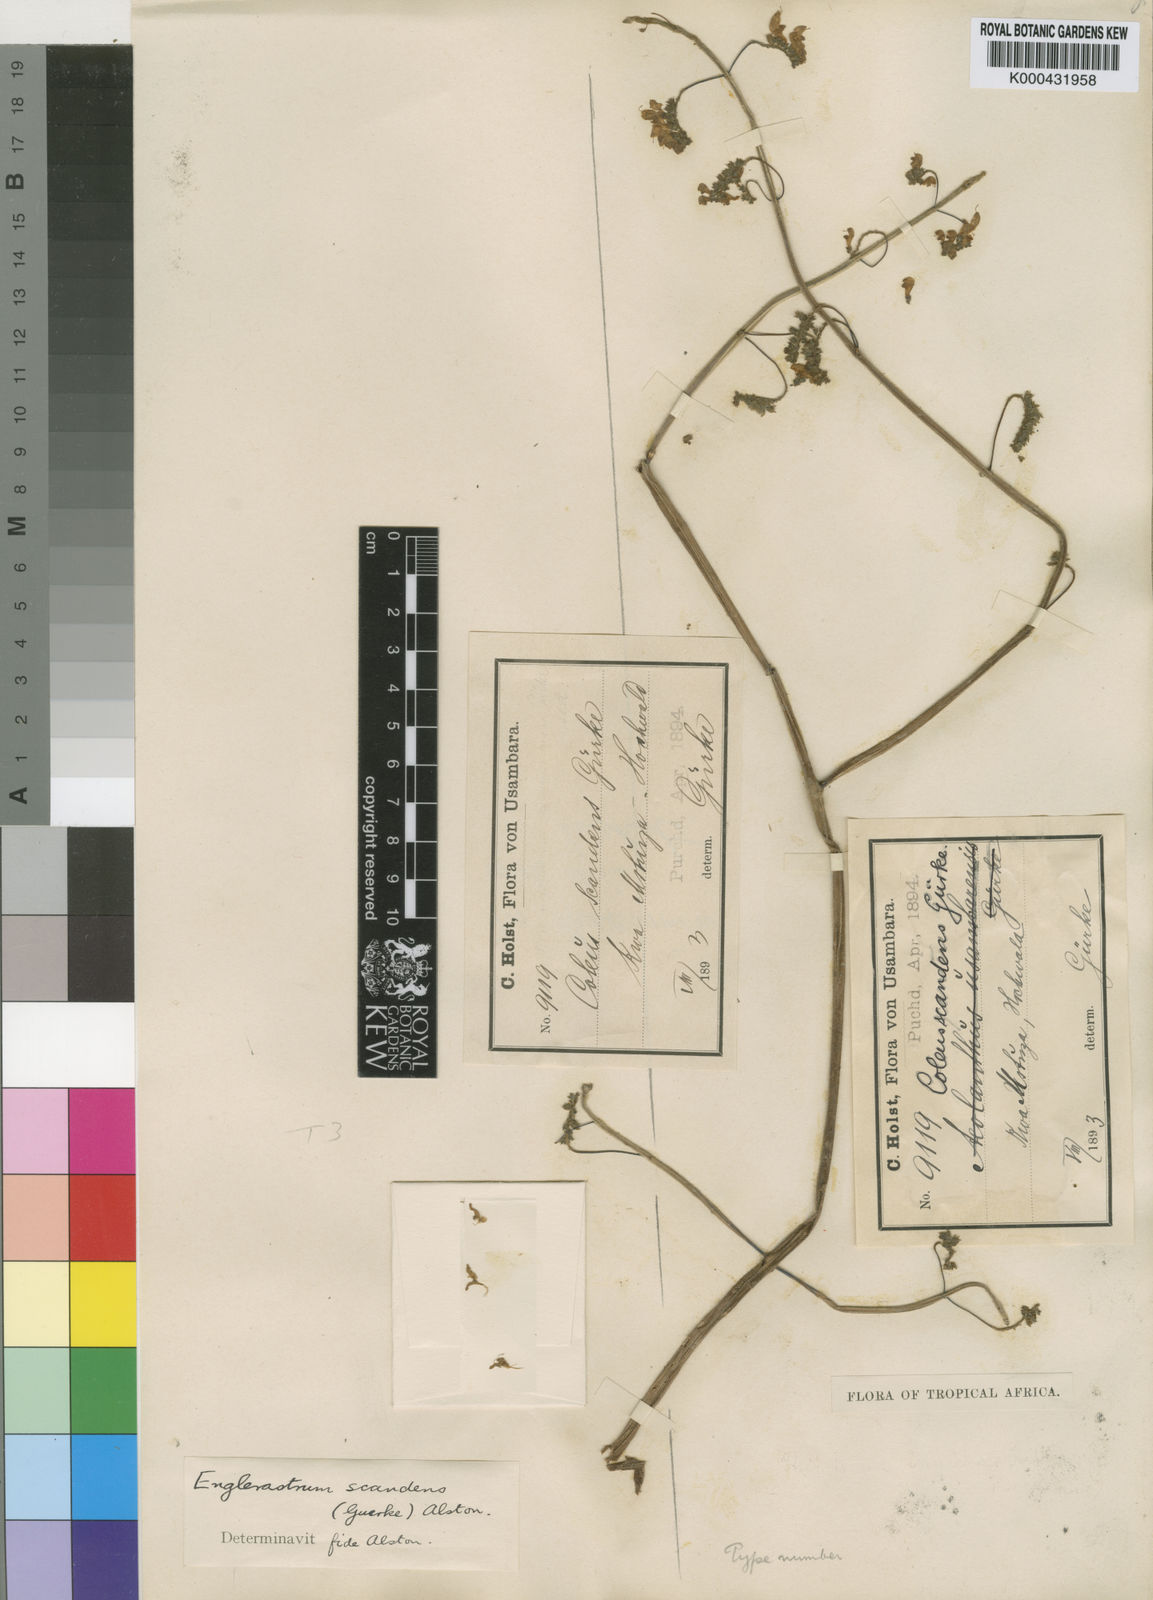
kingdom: Plantae
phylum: Tracheophyta
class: Magnoliopsida
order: Lamiales
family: Lamiaceae
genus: Plectranthus
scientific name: Plectranthus
